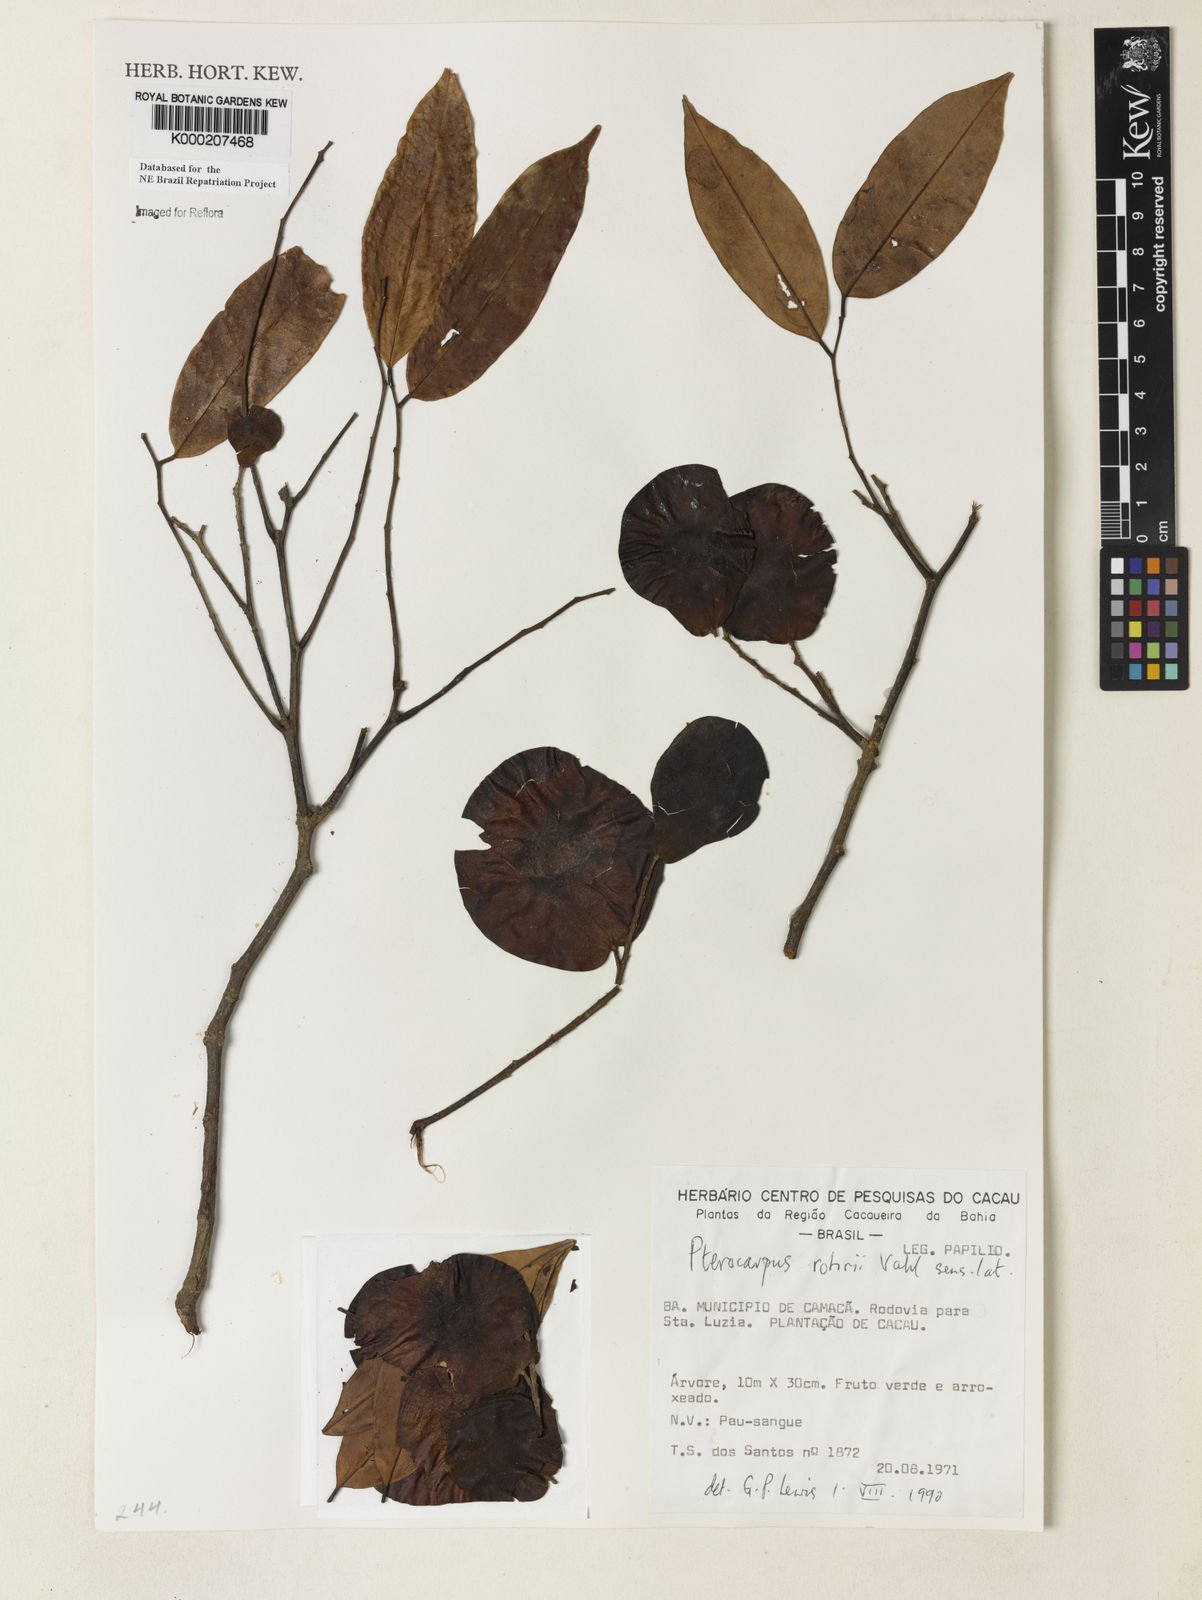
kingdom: Plantae
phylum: Tracheophyta
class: Magnoliopsida
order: Fabales
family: Fabaceae
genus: Pterocarpus
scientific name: Pterocarpus rohrii
